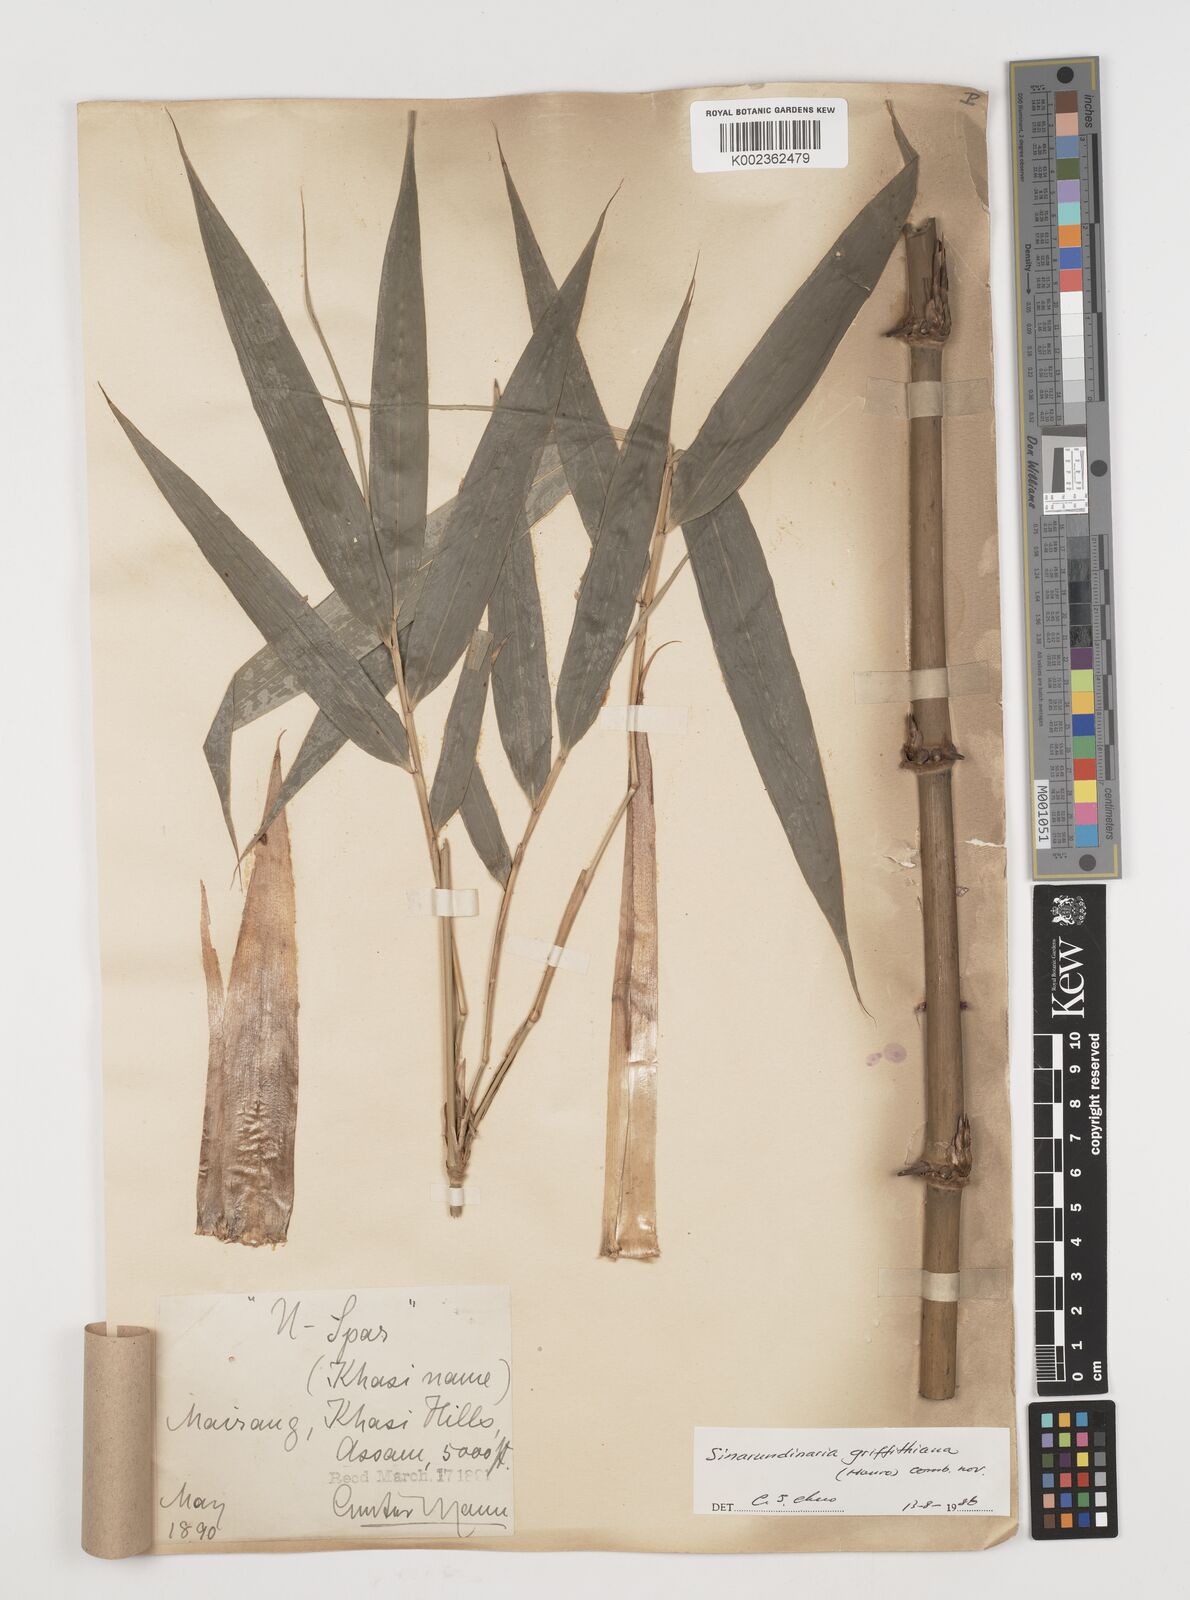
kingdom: Plantae
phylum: Tracheophyta
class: Liliopsida
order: Poales
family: Poaceae
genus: Chimonocalamus
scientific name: Chimonocalamus griffithianus
